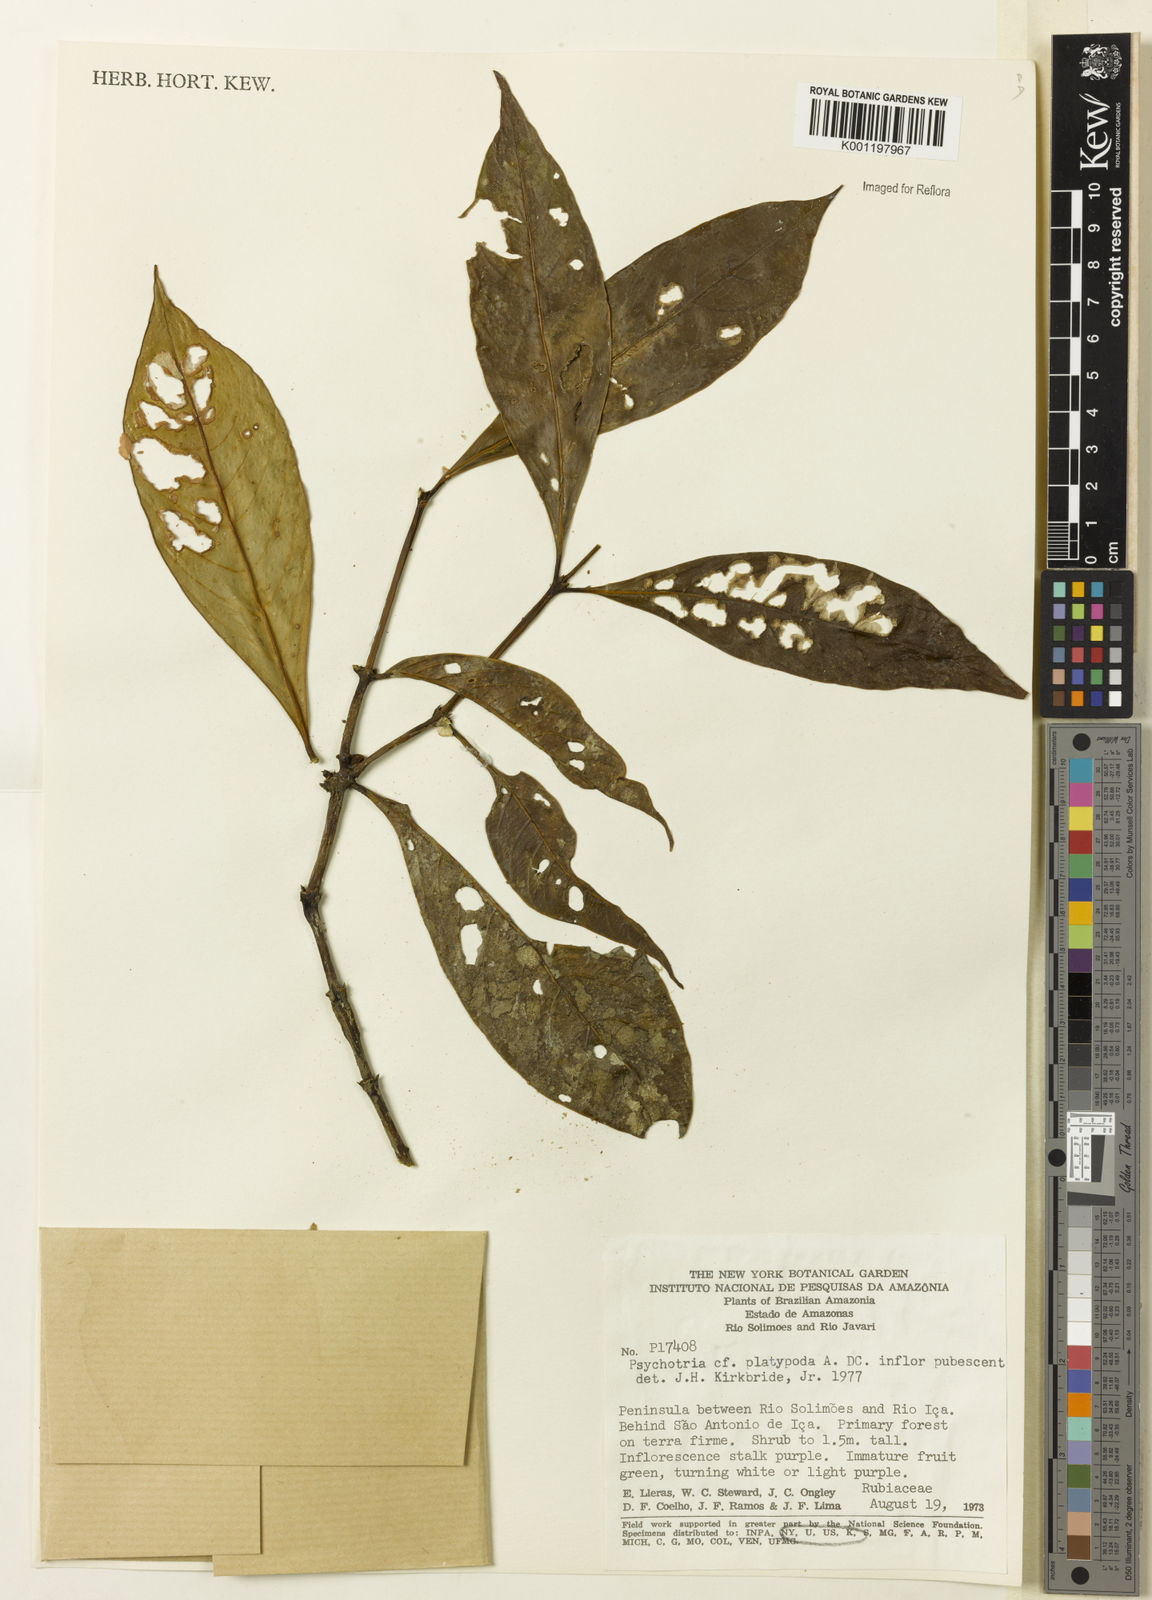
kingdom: Plantae
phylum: Tracheophyta
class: Magnoliopsida
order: Gentianales
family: Rubiaceae
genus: Palicourea
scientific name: Palicourea dichotoma
